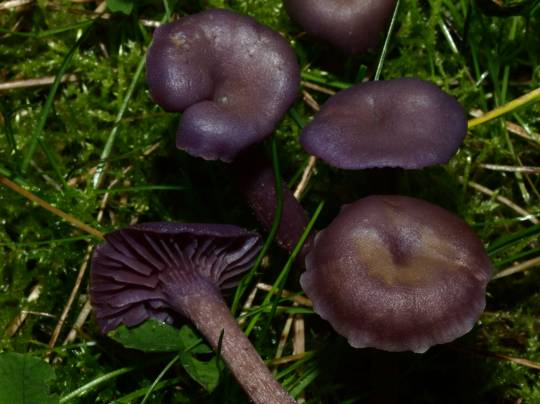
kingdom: Fungi
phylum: Basidiomycota
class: Agaricomycetes
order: Agaricales
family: Hydnangiaceae
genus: Laccaria
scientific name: Laccaria amethystina
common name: violet ametysthat
